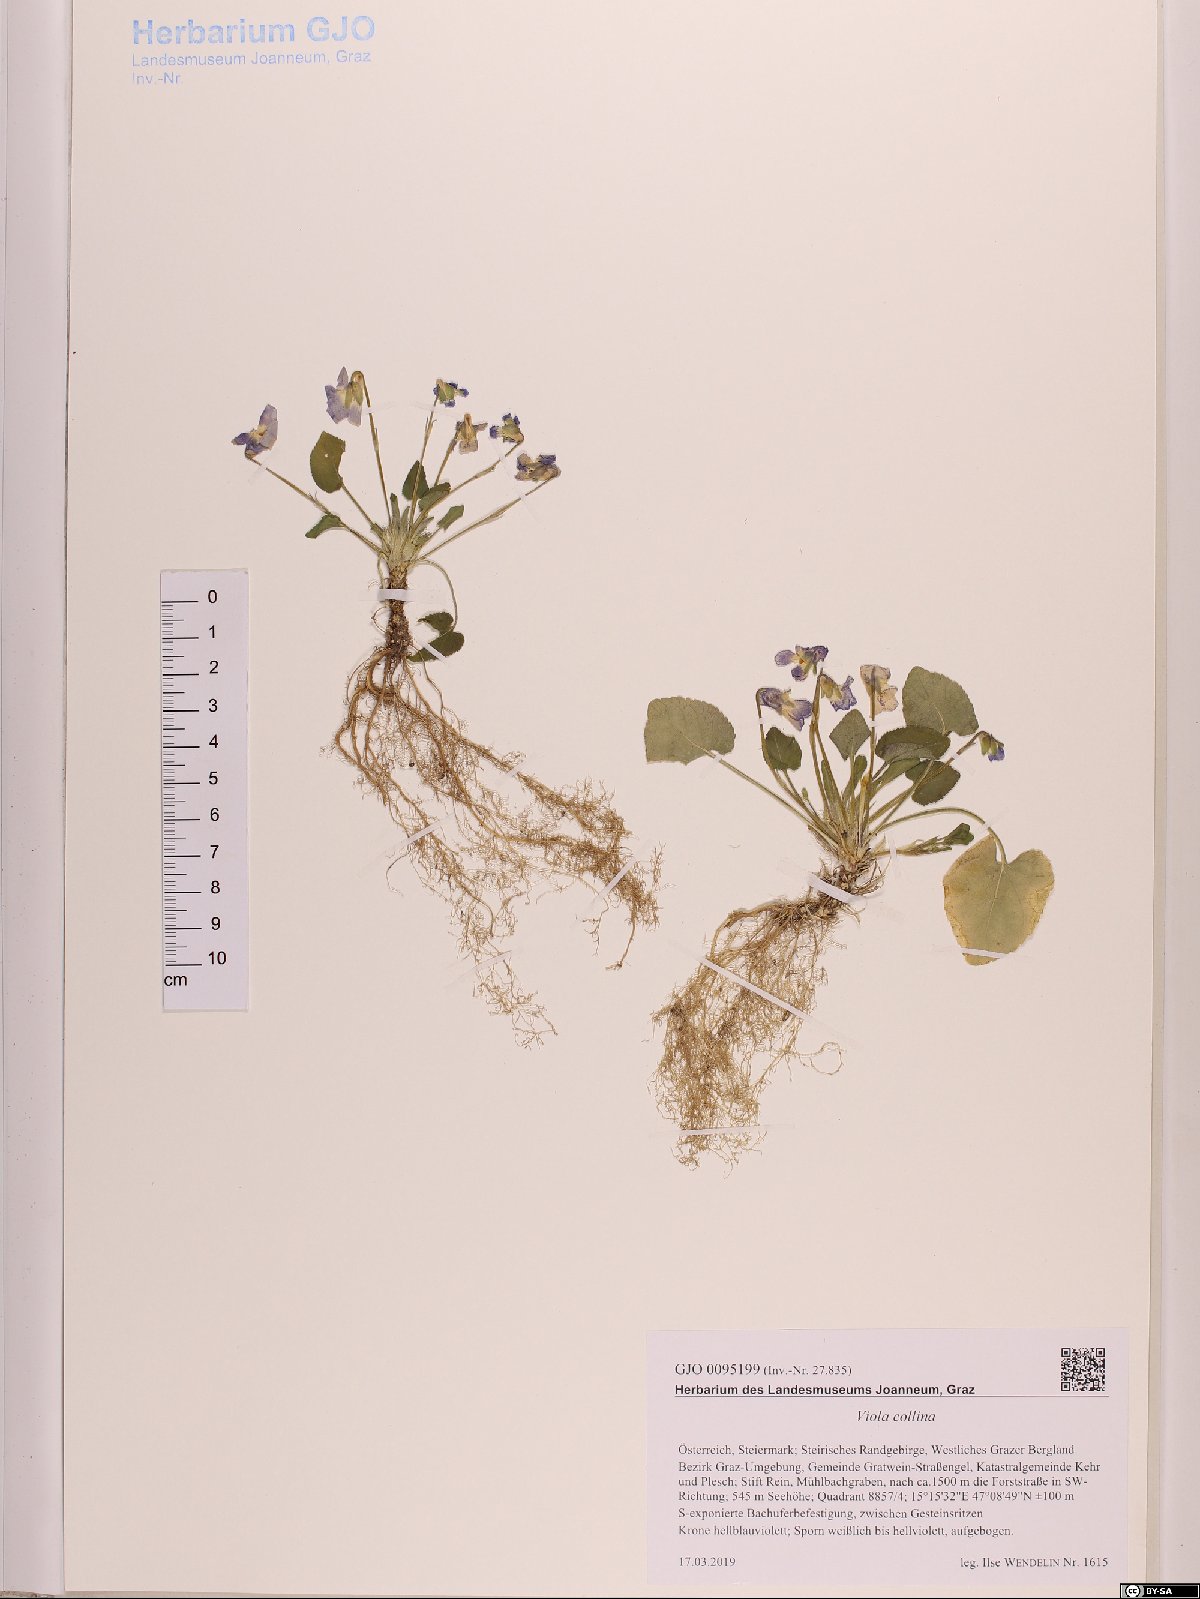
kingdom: Plantae
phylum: Tracheophyta
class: Magnoliopsida
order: Malpighiales
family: Violaceae
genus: Viola
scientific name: Viola collina
